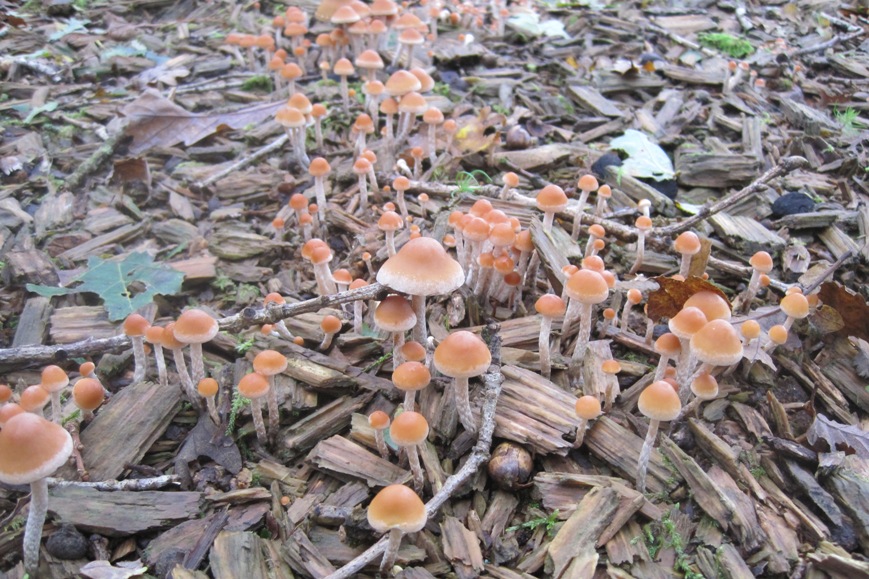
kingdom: Fungi
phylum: Basidiomycota
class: Agaricomycetes
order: Agaricales
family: Strophariaceae
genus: Hypholoma
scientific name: Hypholoma marginatum
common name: enlig svovlhat
